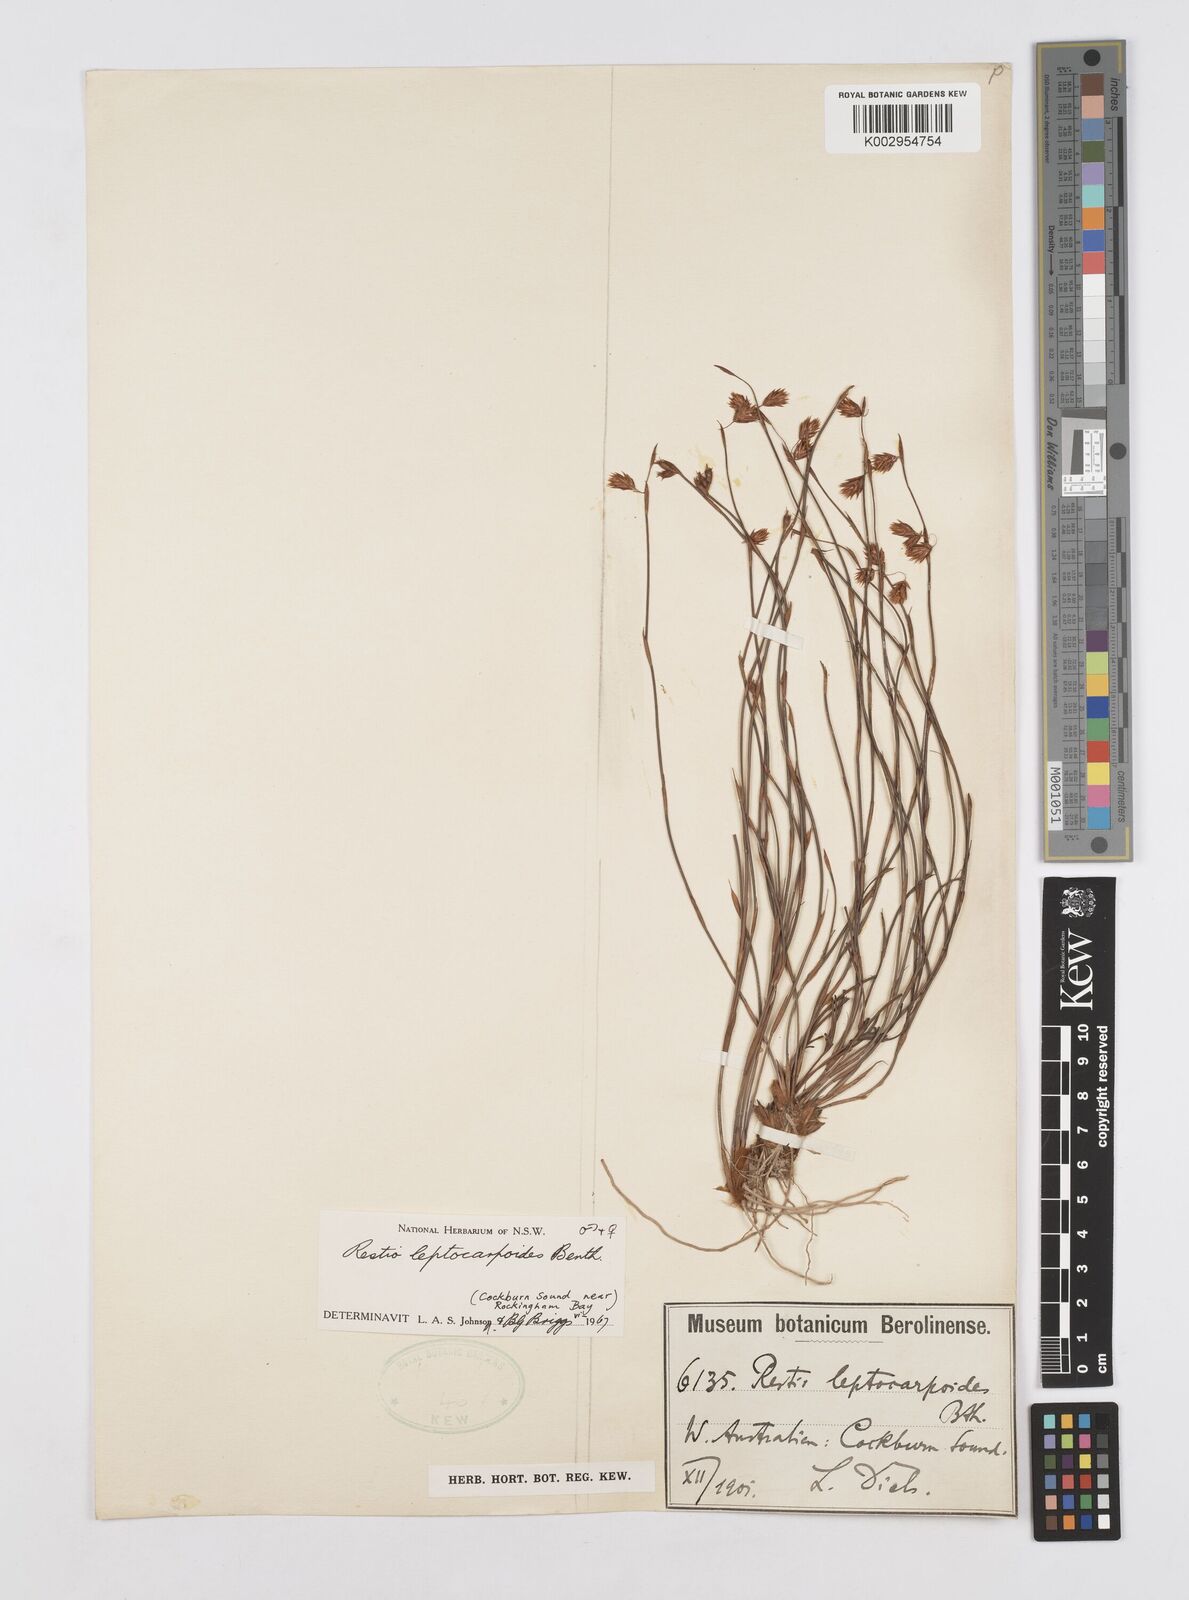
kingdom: Plantae
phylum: Tracheophyta
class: Liliopsida
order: Poales
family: Restionaceae
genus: Cytogonidium
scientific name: Cytogonidium leptocarpoides
